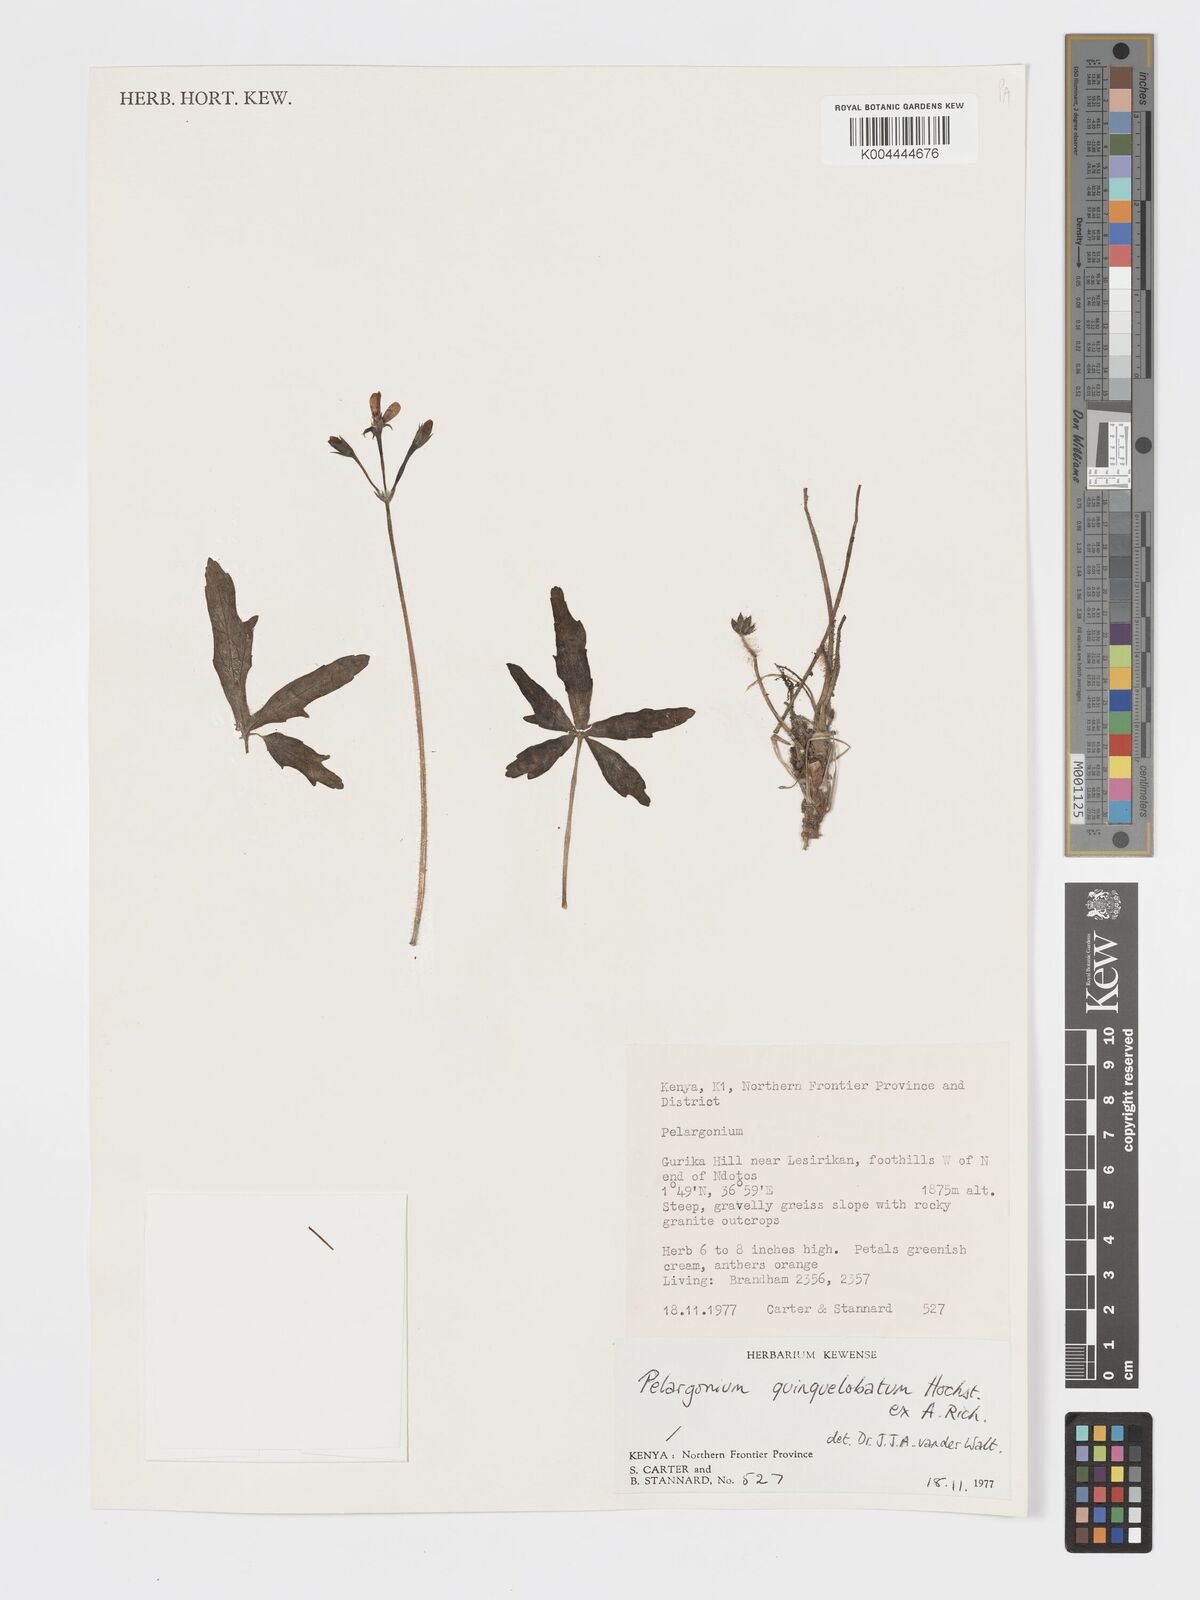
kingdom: Plantae
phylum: Tracheophyta
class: Magnoliopsida
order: Geraniales
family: Geraniaceae
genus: Pelargonium
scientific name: Pelargonium quinquelobatum
